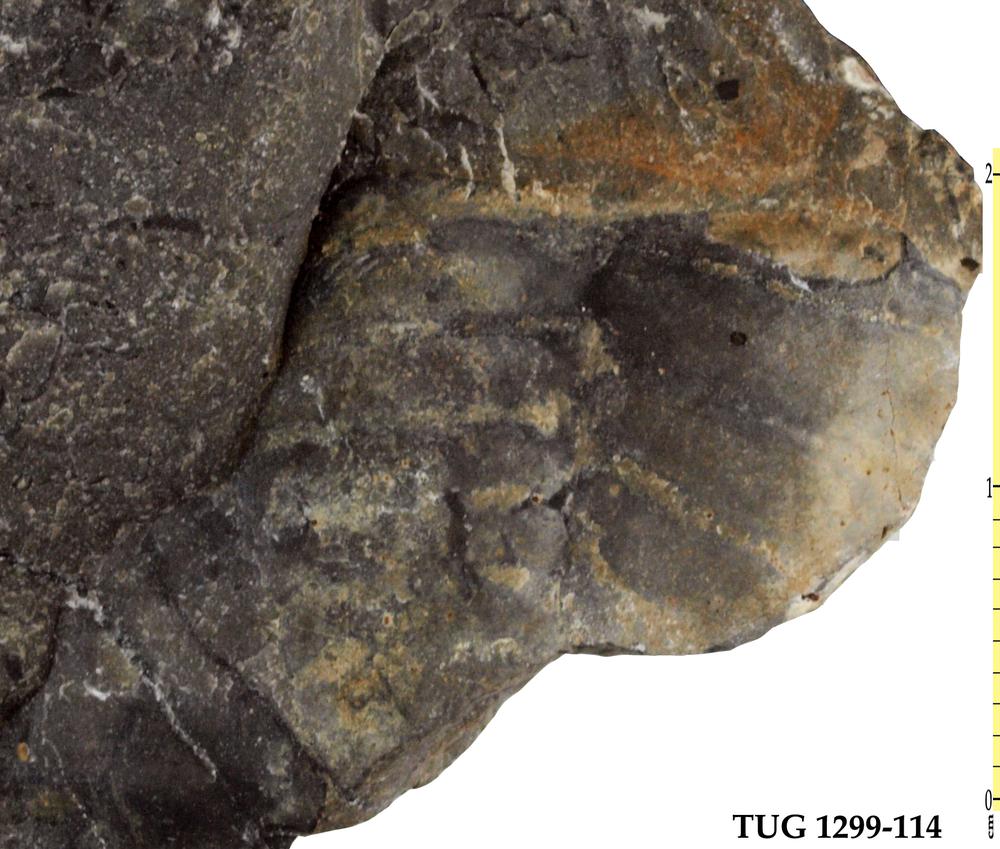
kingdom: Animalia
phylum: Arthropoda
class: Trilobita
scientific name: Trilobita
